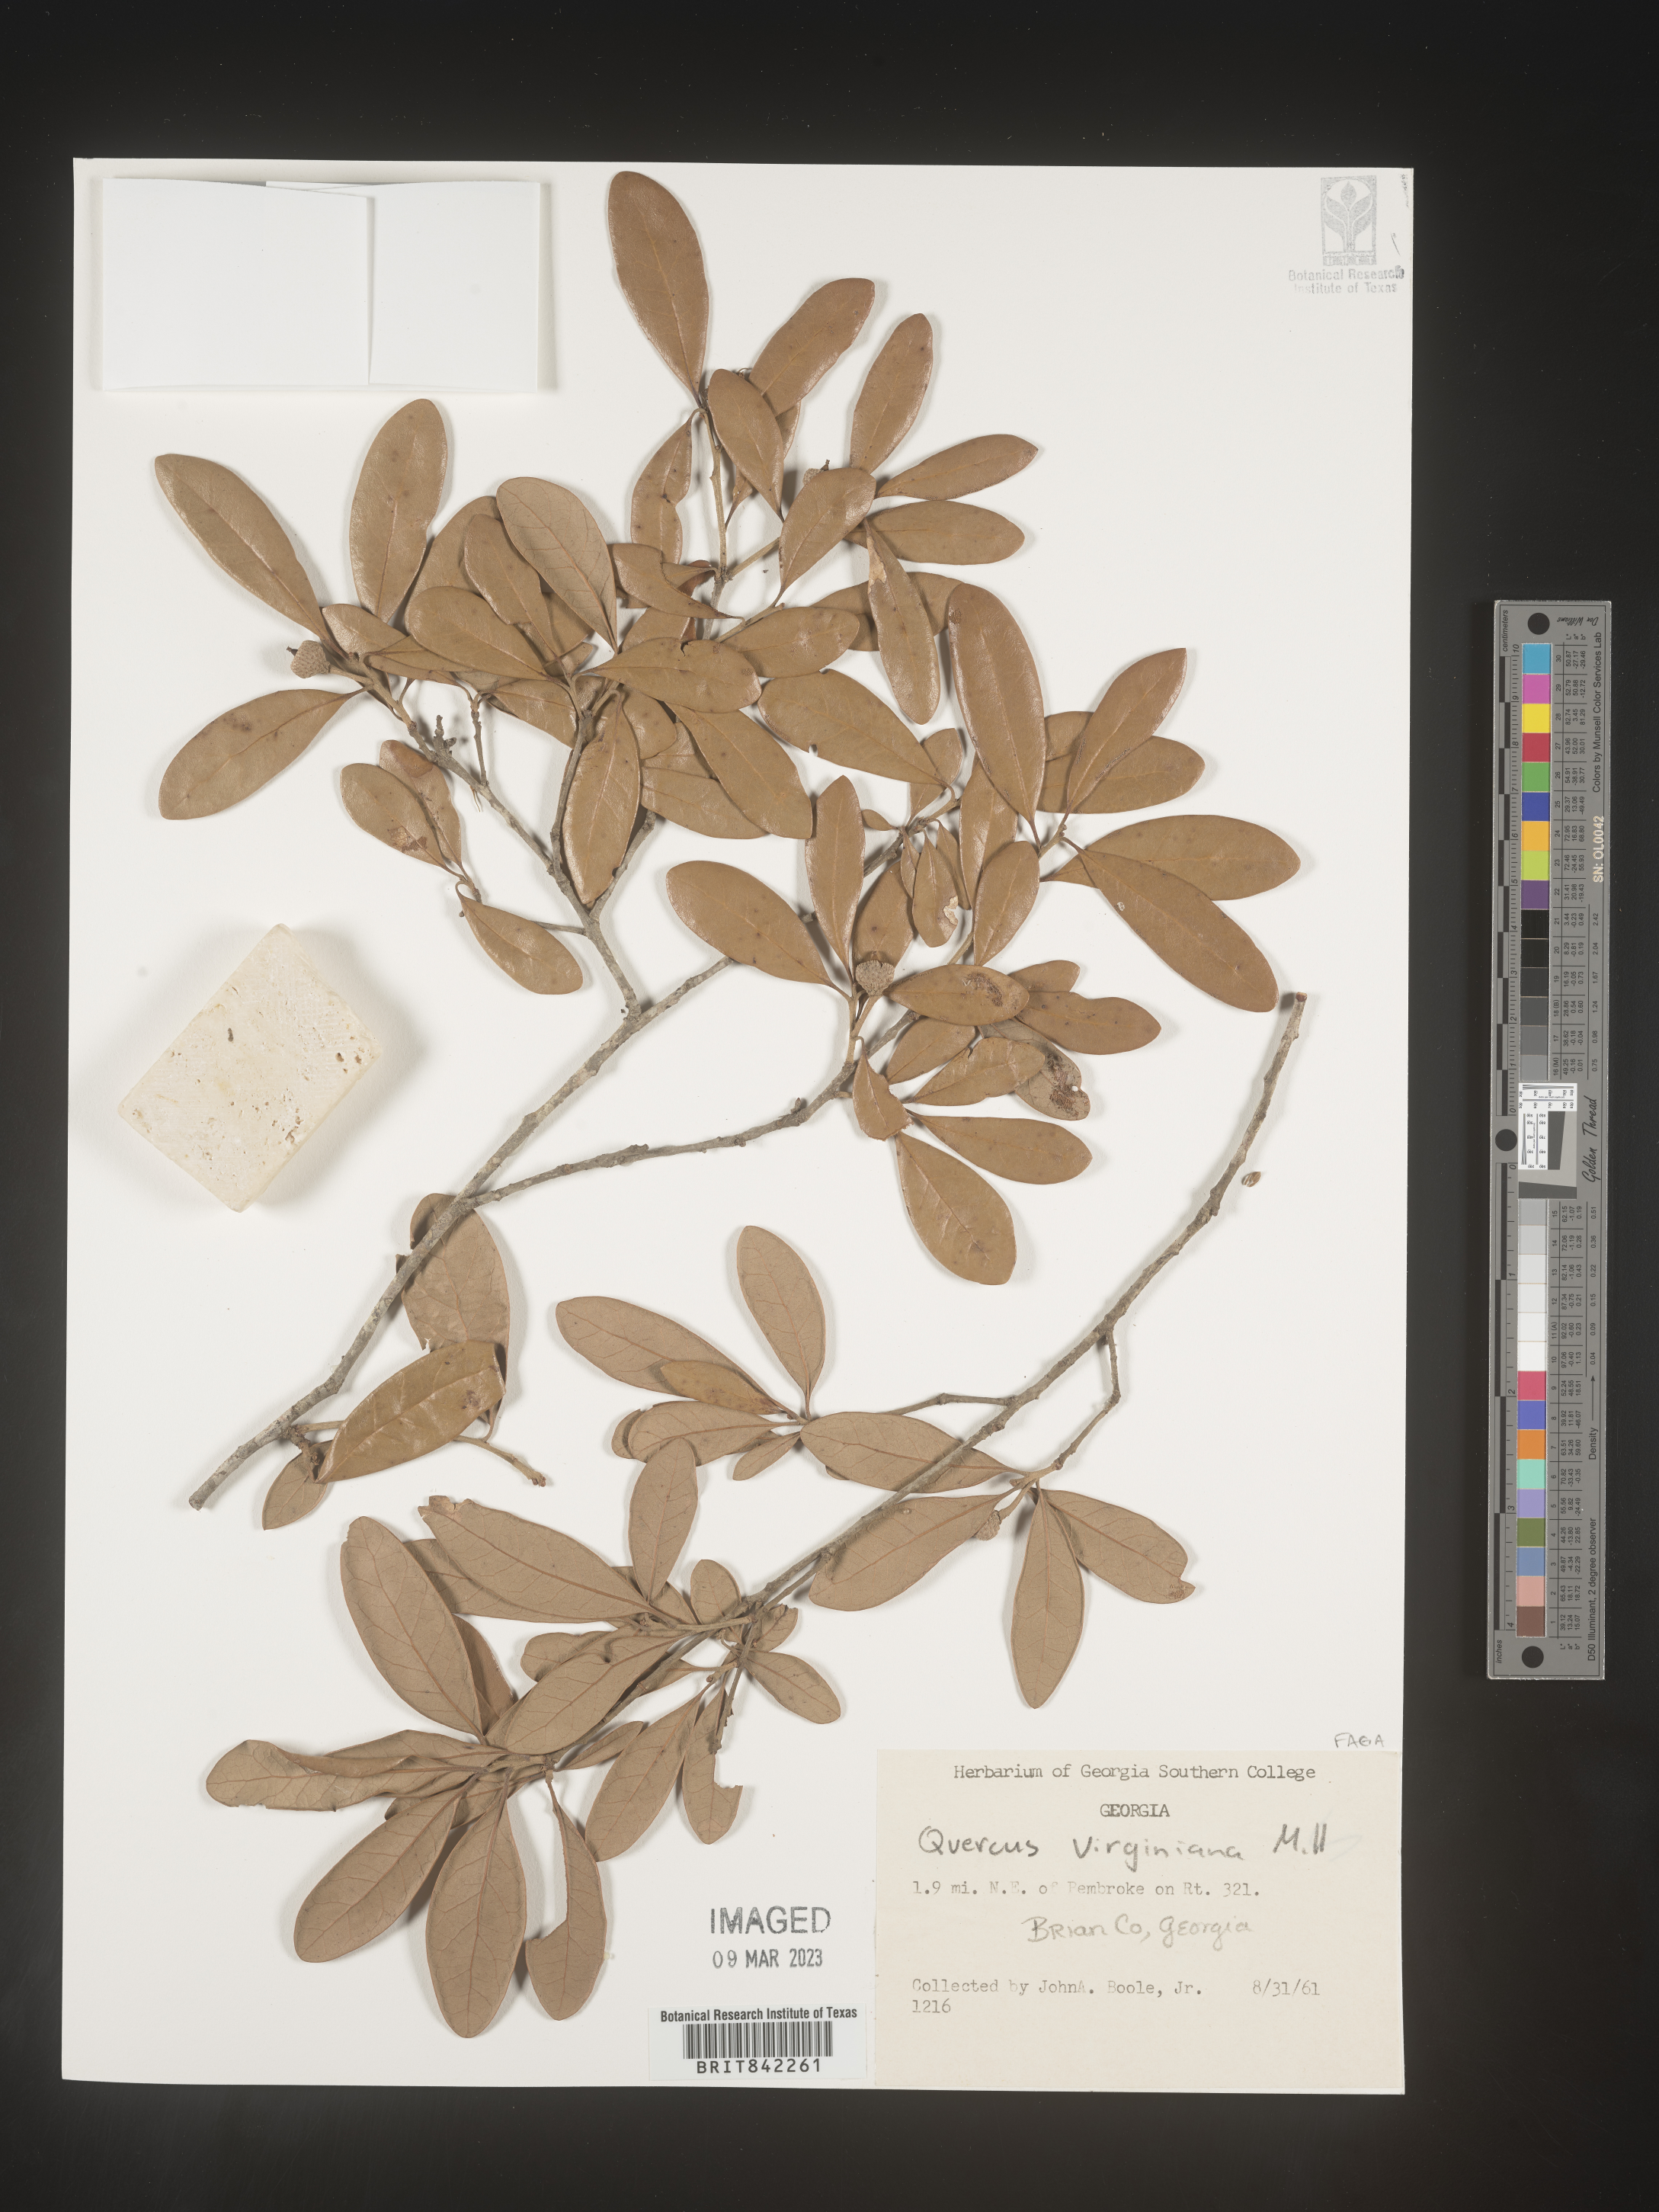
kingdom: Plantae
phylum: Tracheophyta
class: Magnoliopsida
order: Fagales
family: Fagaceae
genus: Quercus
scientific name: Quercus virginiana
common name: Southern live oak
